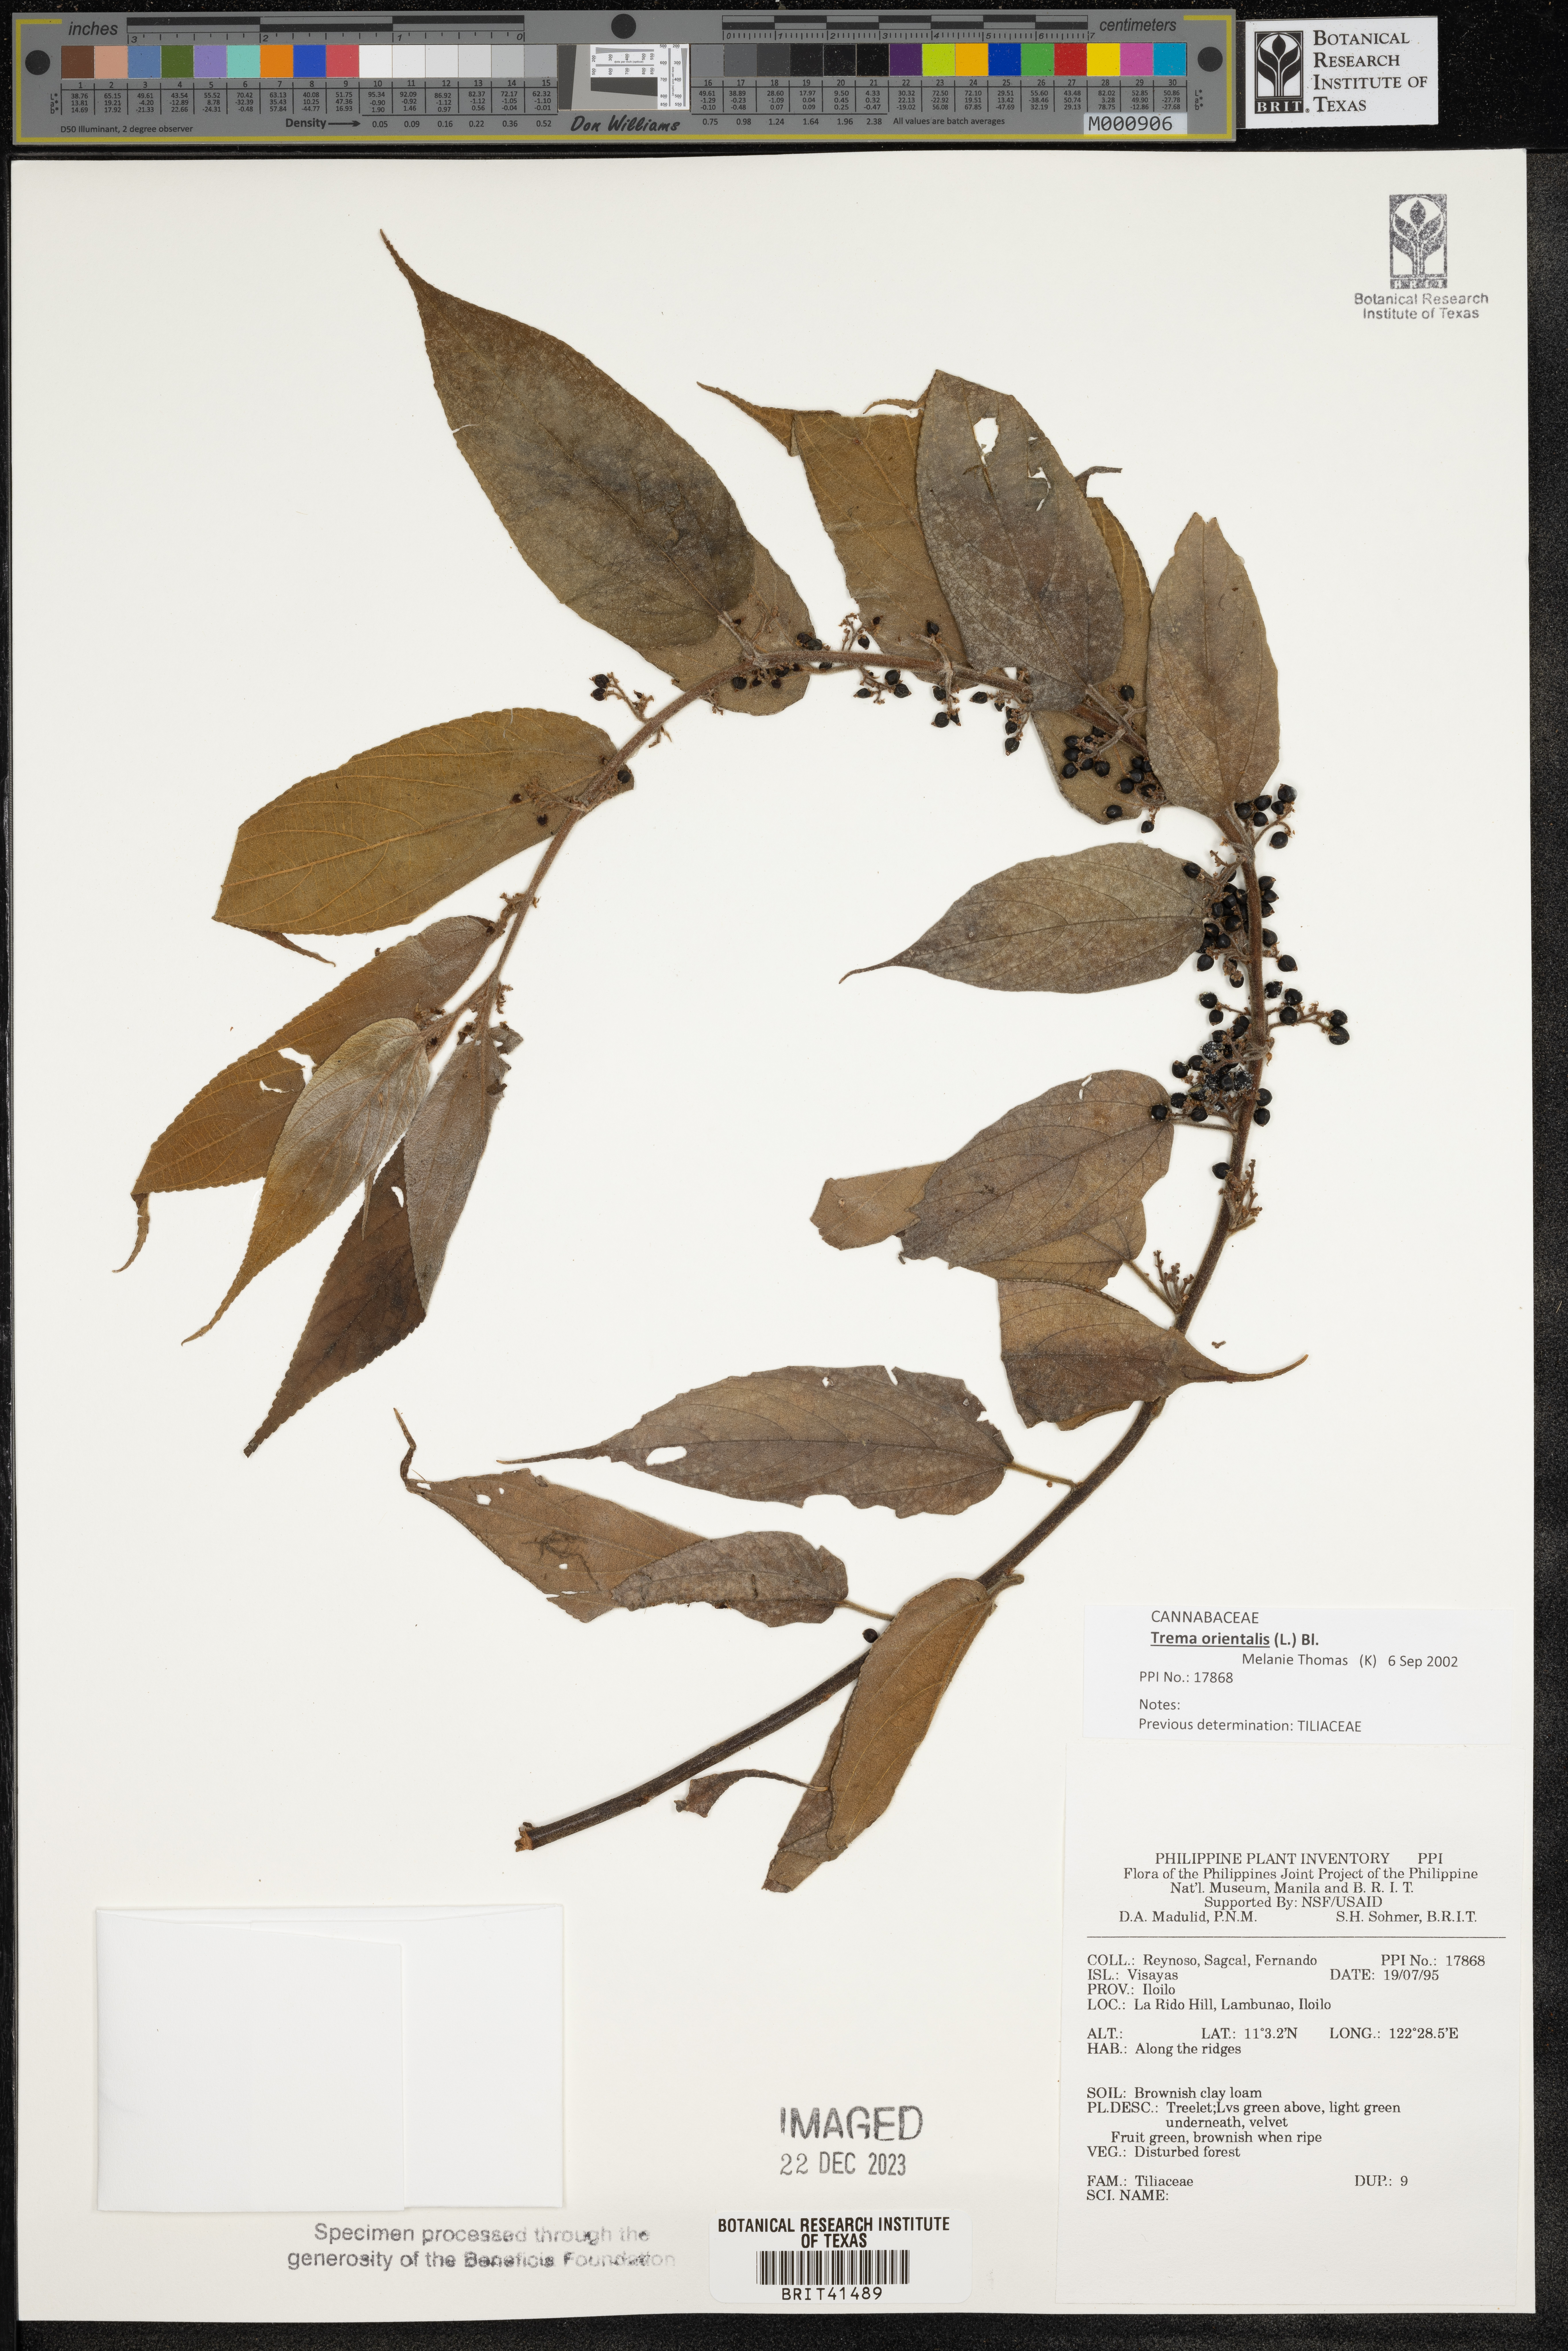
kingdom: Plantae
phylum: Tracheophyta
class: Magnoliopsida
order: Malvales
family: Tiliaceae
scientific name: Tiliaceae
